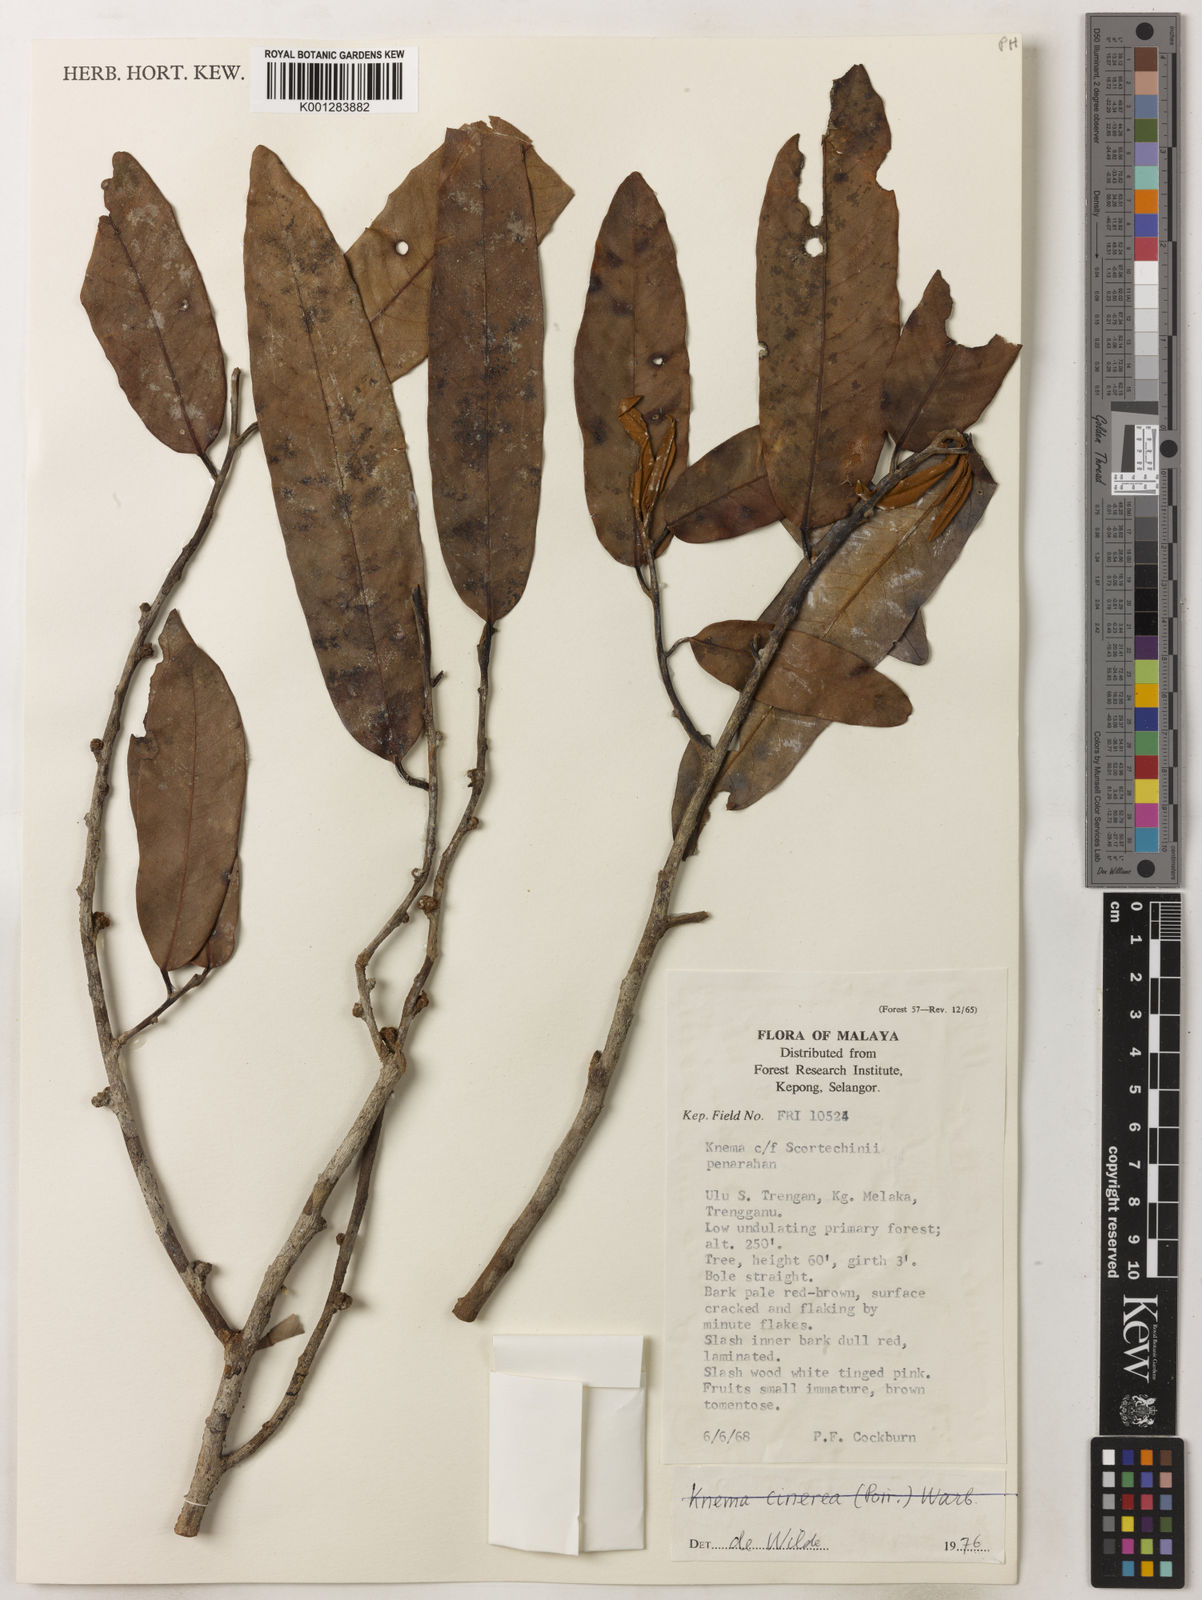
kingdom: Plantae
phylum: Tracheophyta
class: Magnoliopsida
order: Magnoliales
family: Myristicaceae
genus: Knema
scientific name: Knema cinerea
